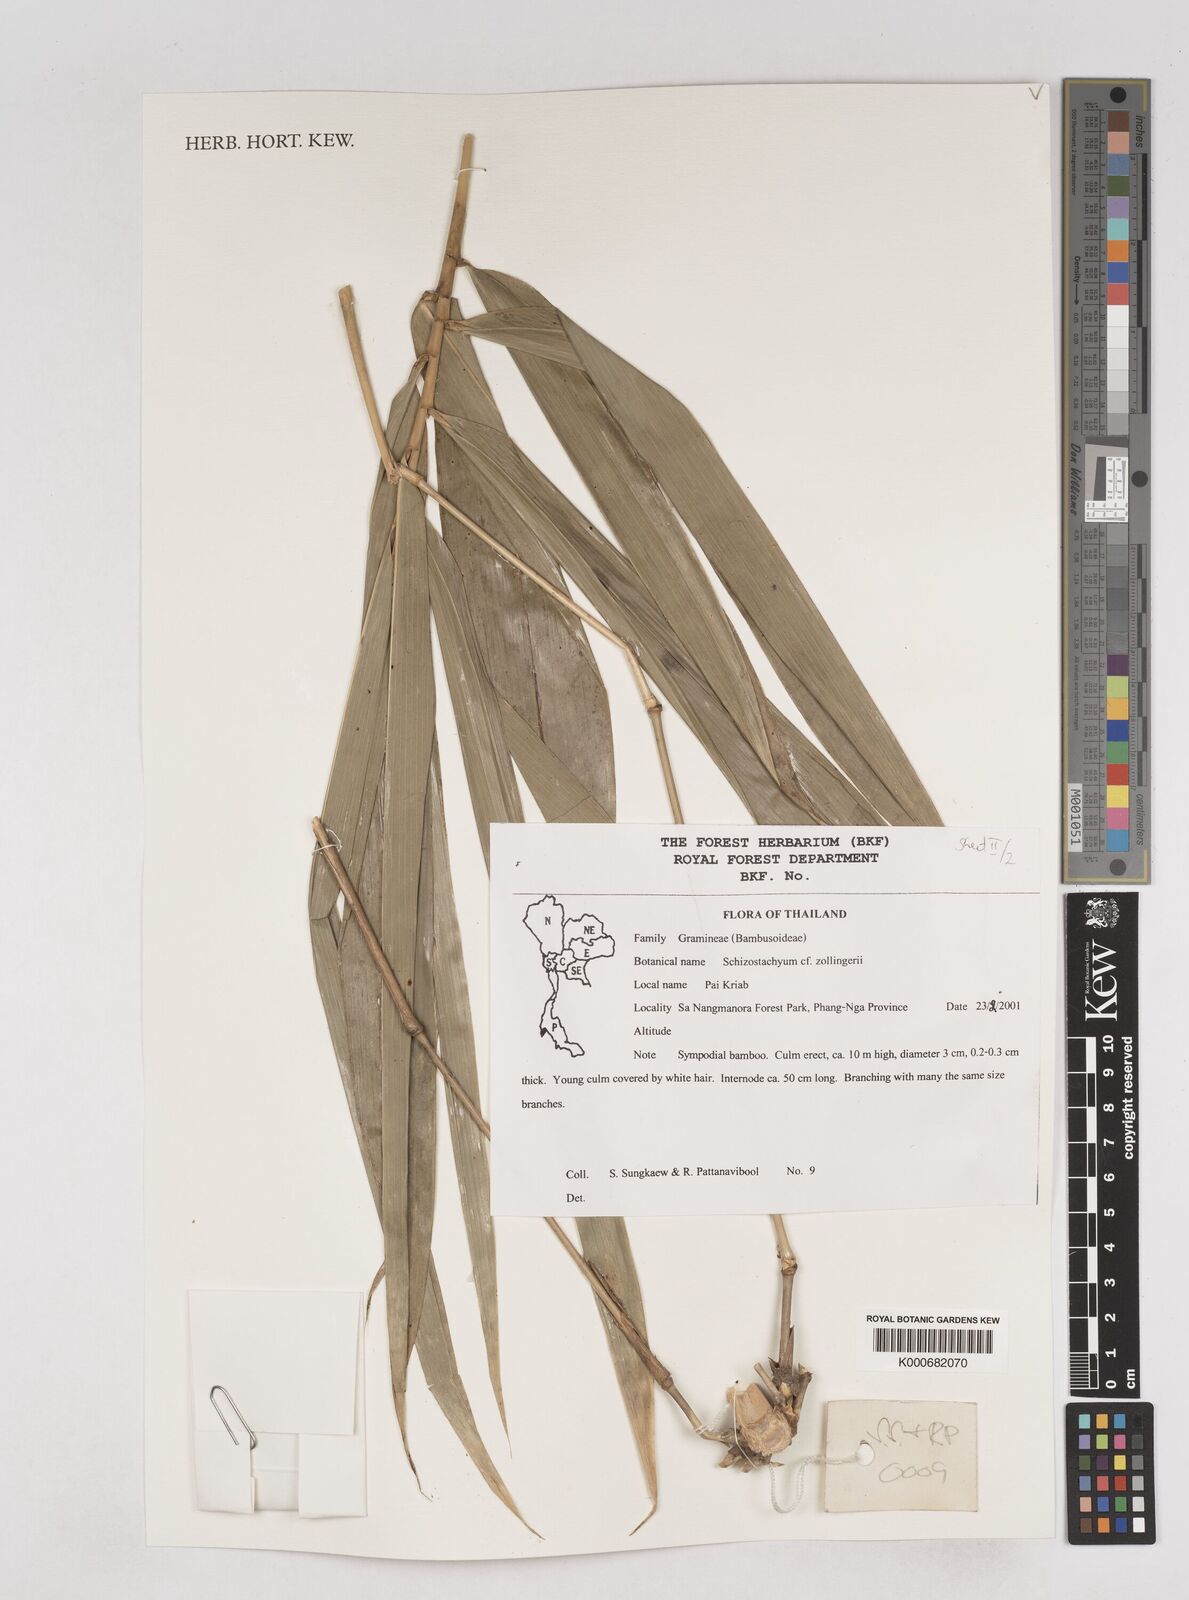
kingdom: Plantae
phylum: Tracheophyta
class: Liliopsida
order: Poales
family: Poaceae
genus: Schizostachyum
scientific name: Schizostachyum zollingeri
